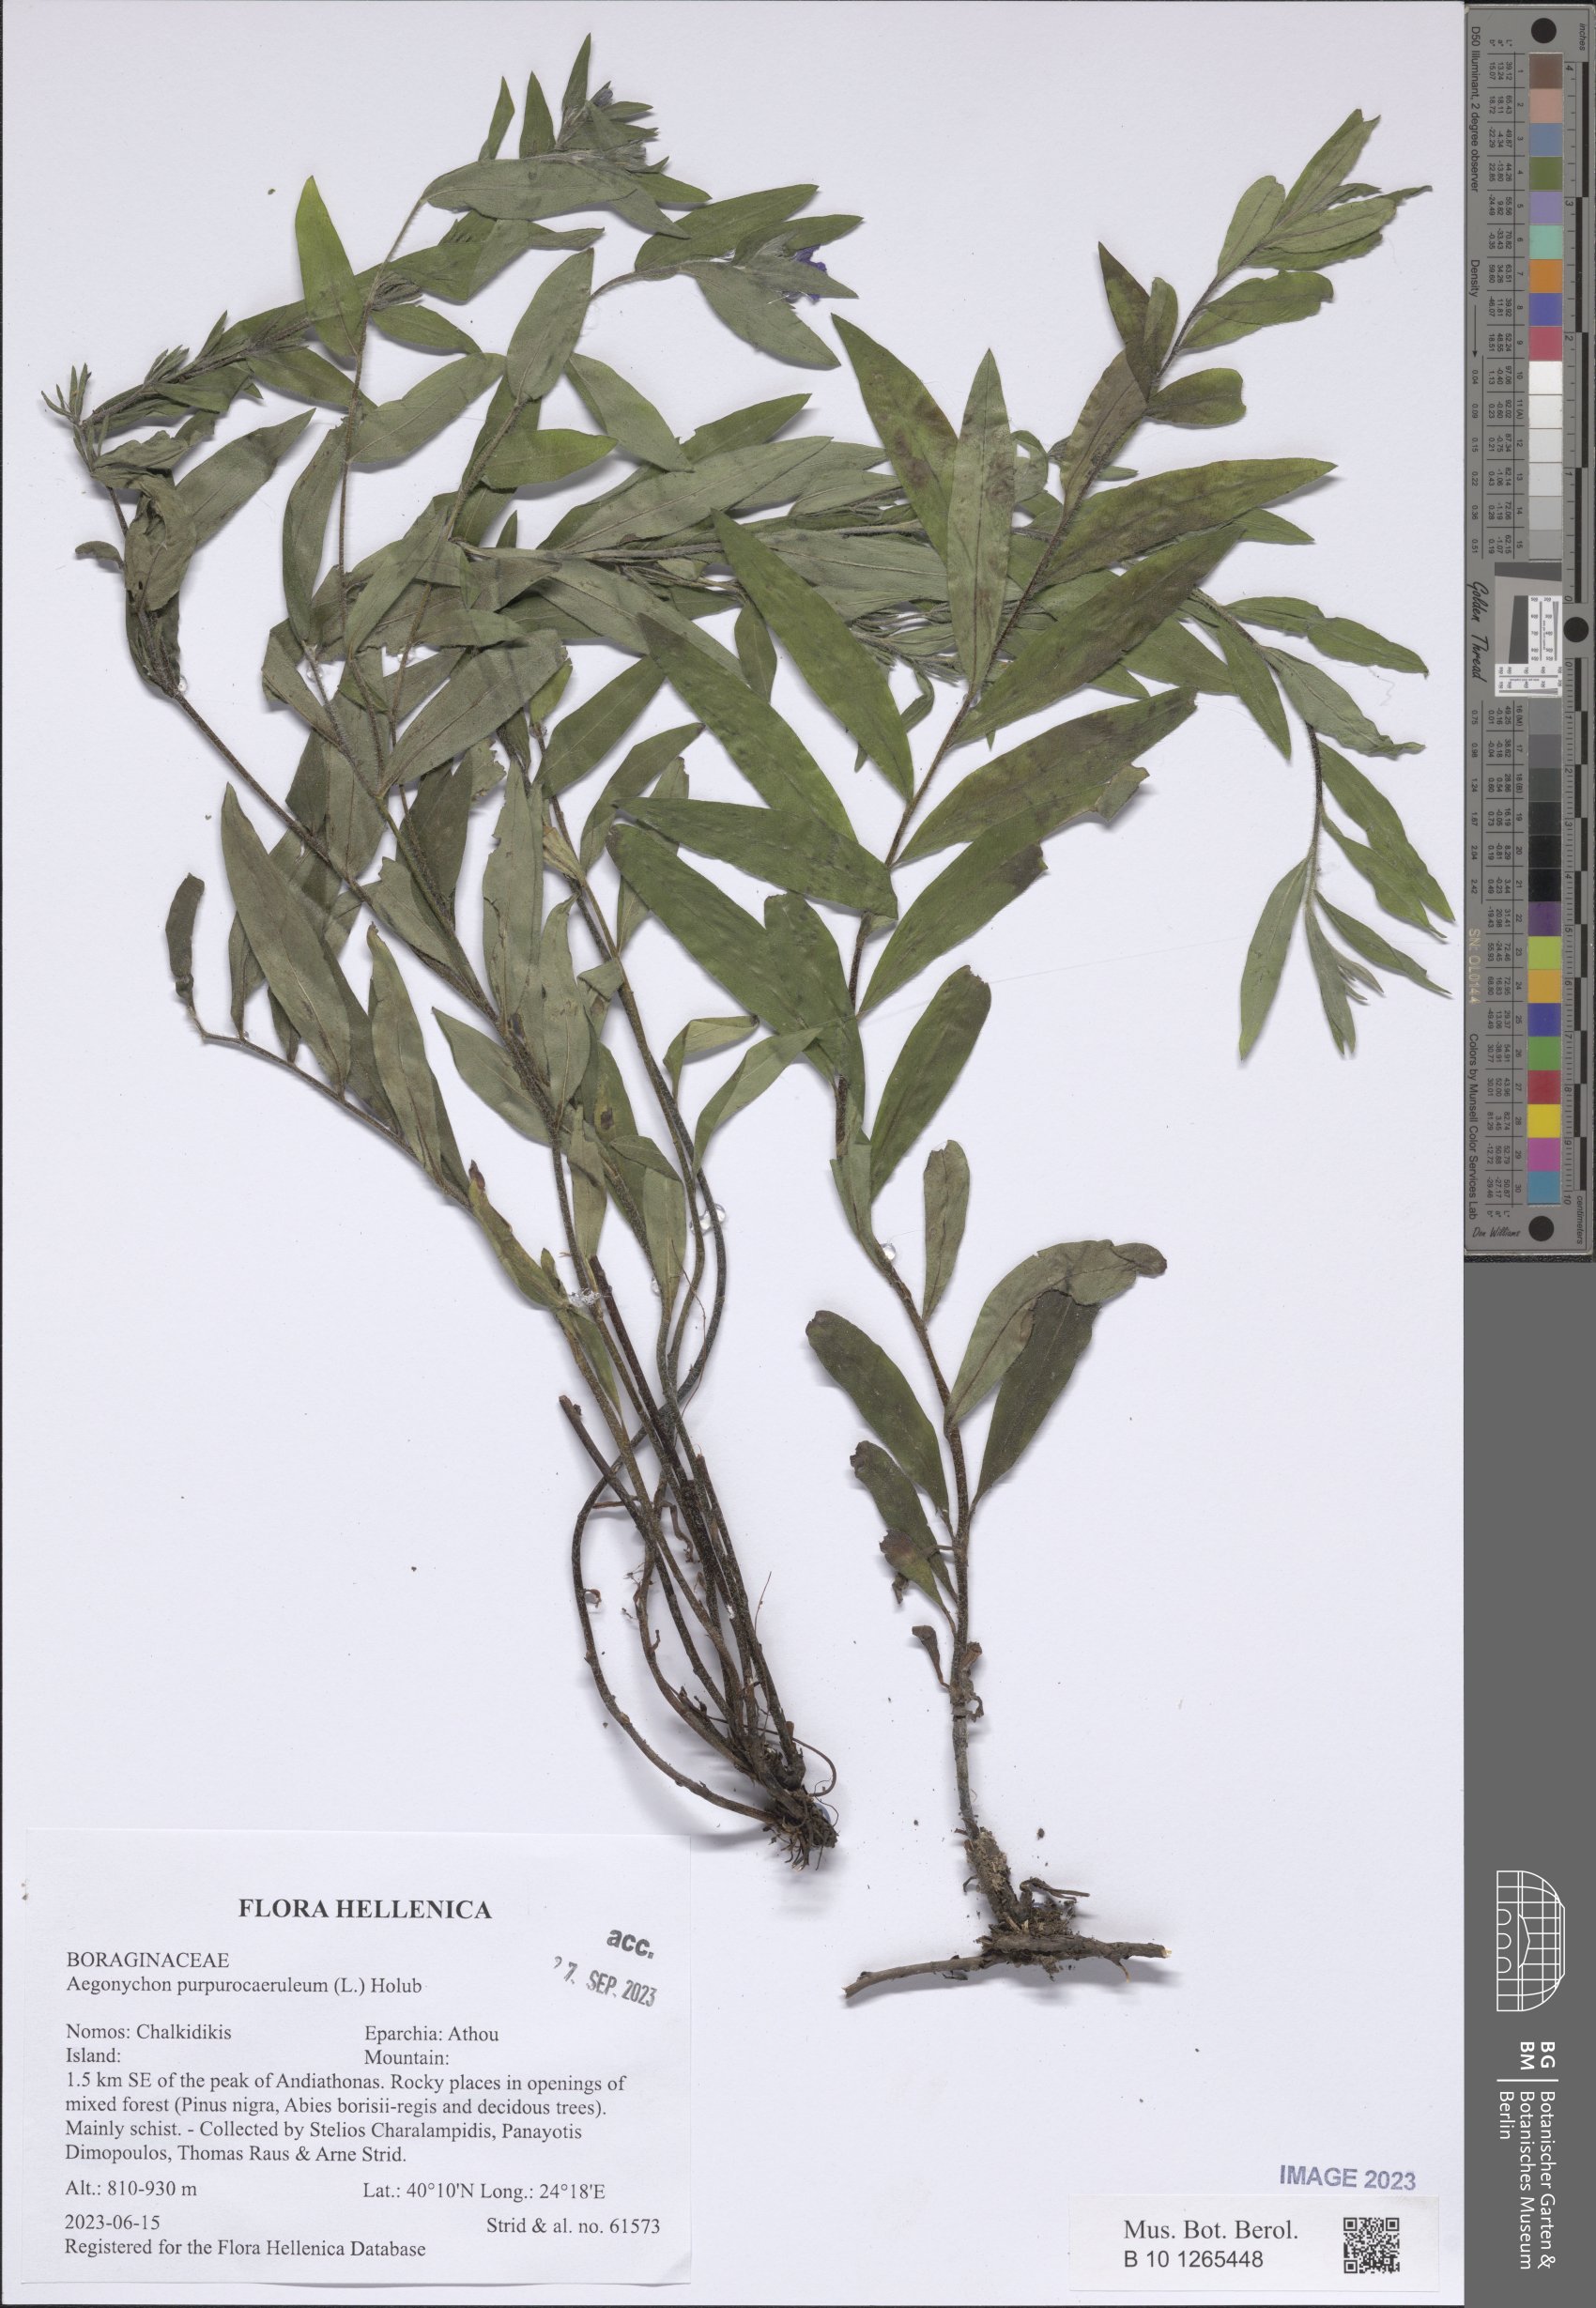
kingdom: Plantae
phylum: Tracheophyta
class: Magnoliopsida
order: Boraginales
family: Boraginaceae
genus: Aegonychon
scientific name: Aegonychon purpurocaeruleum
